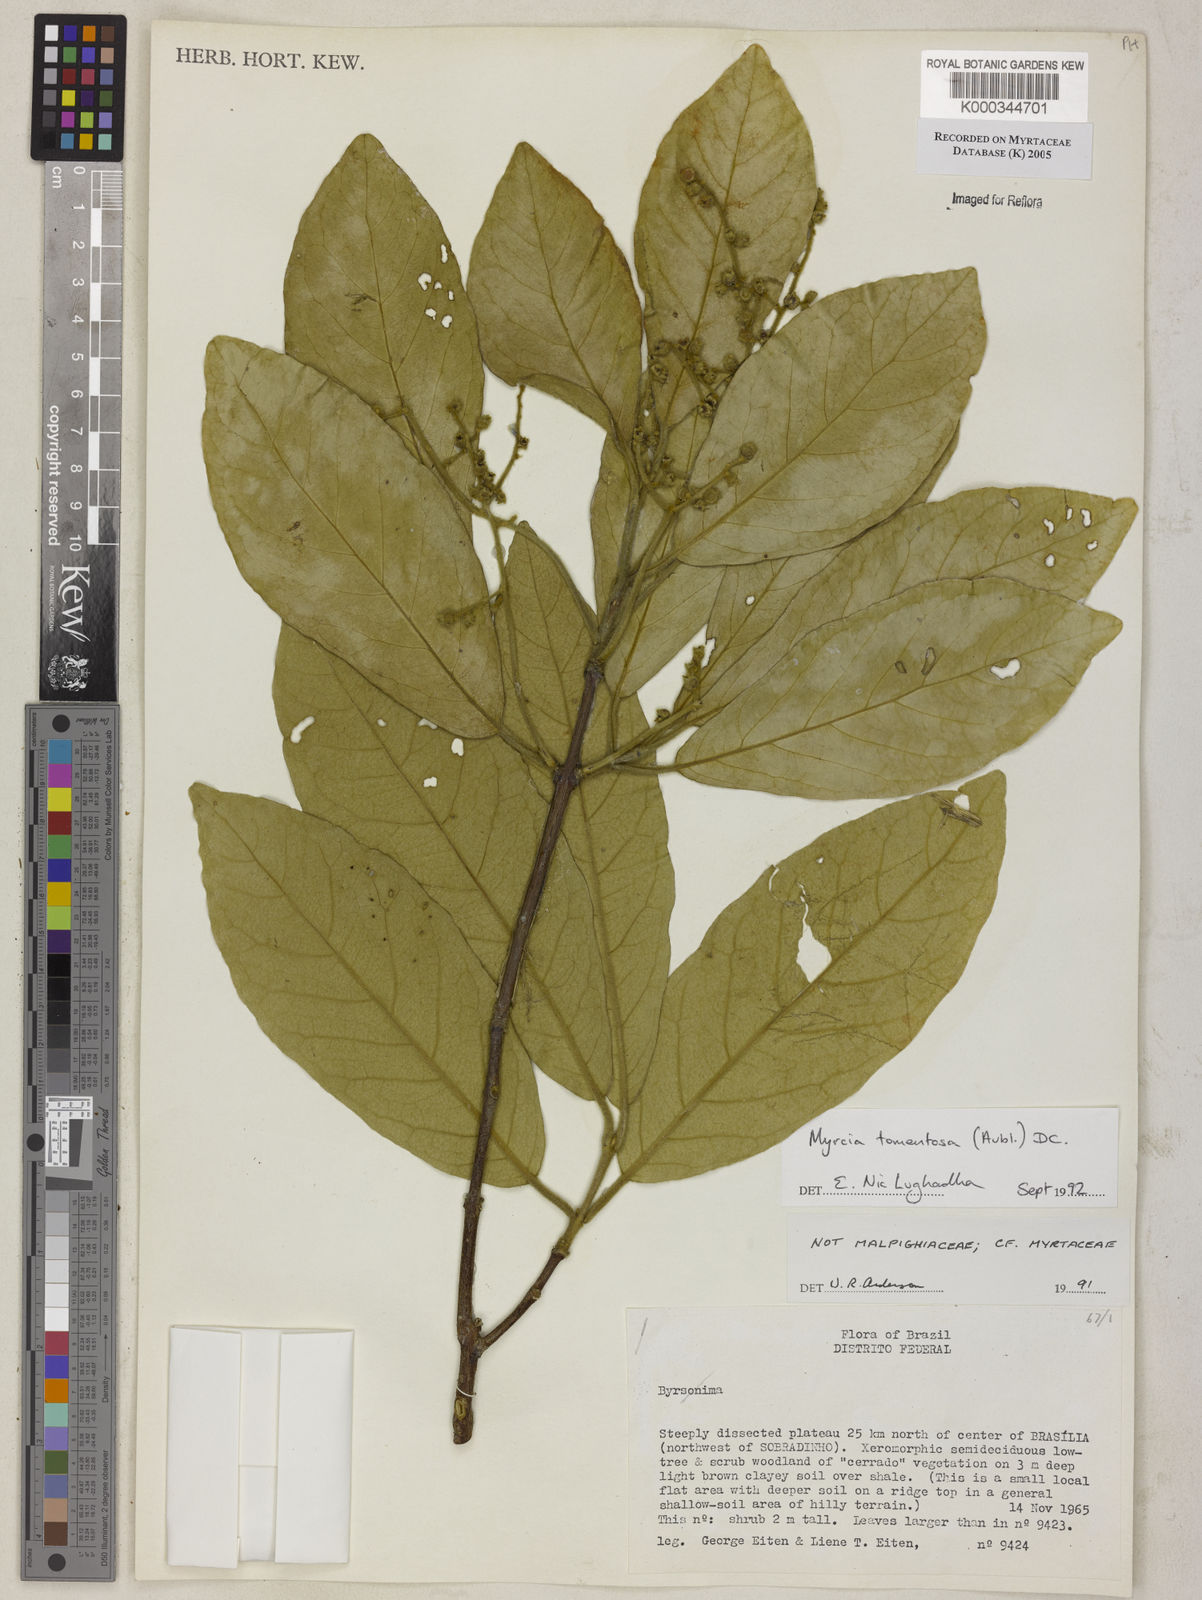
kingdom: Plantae
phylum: Tracheophyta
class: Magnoliopsida
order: Myrtales
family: Myrtaceae
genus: Myrcia
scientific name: Myrcia tomentosa
